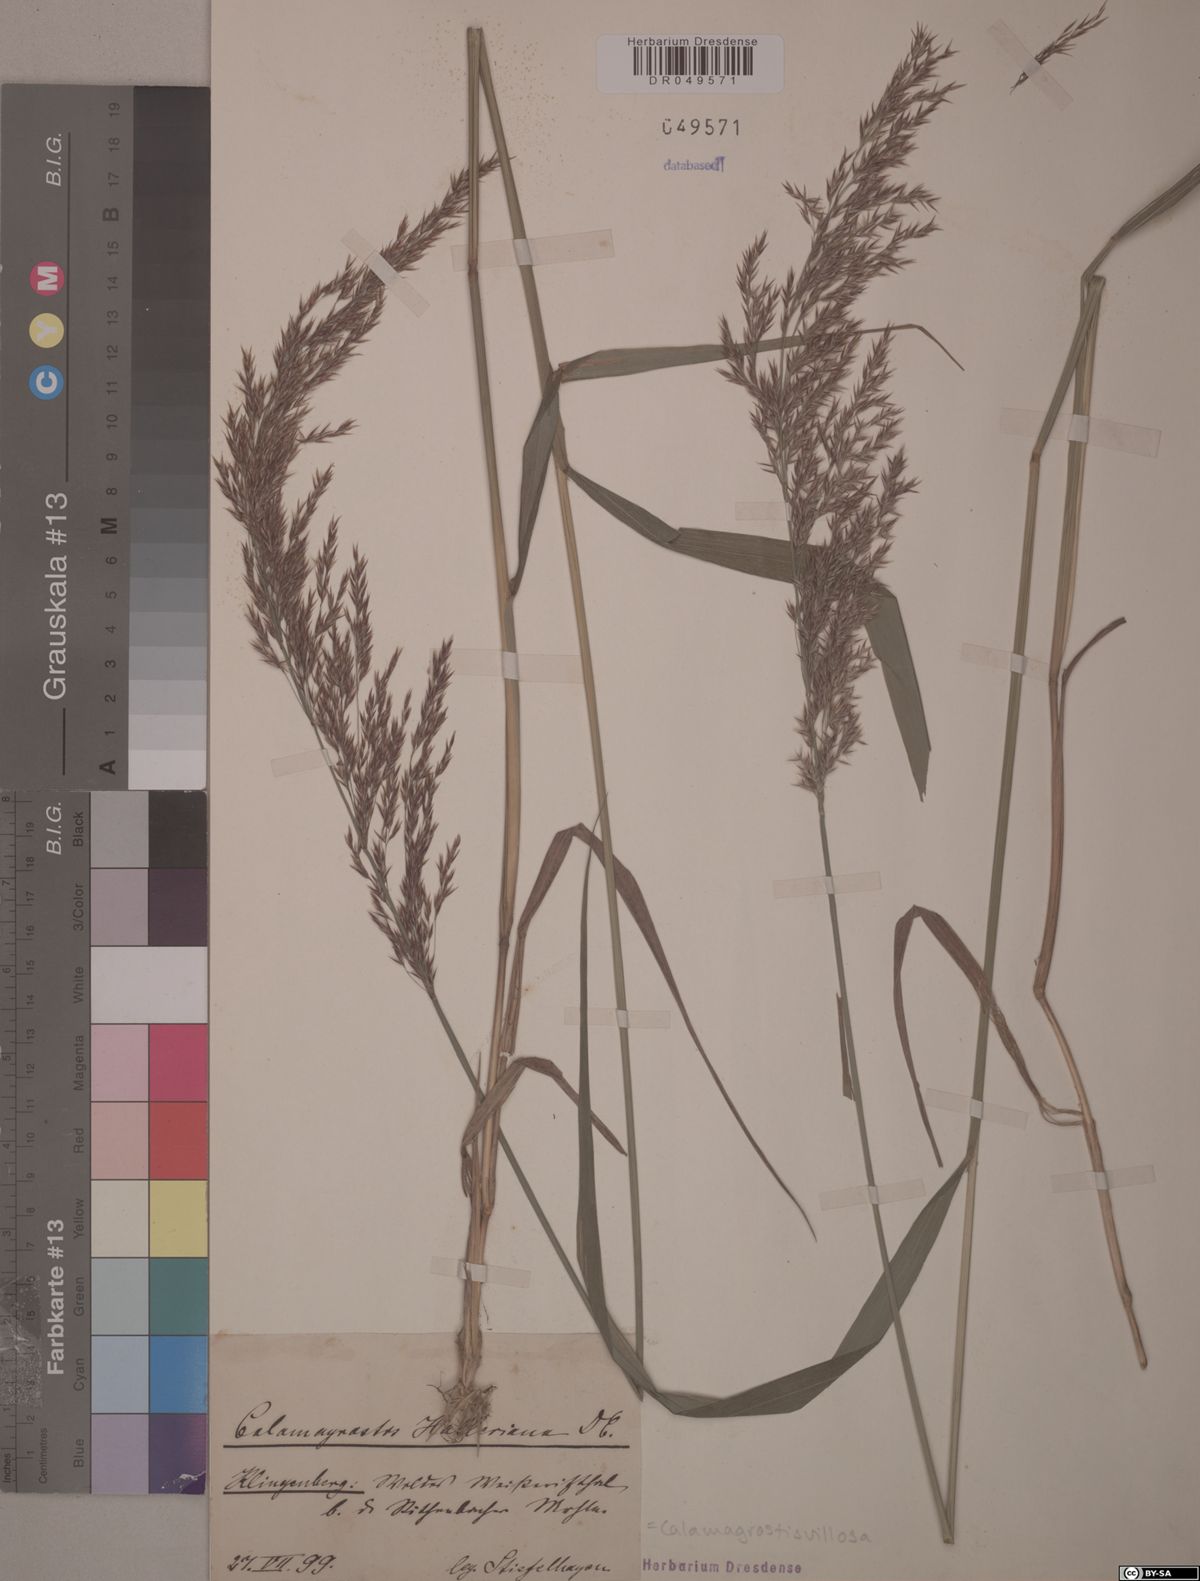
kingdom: Plantae
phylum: Tracheophyta
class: Liliopsida
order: Poales
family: Poaceae
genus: Calamagrostis
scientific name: Calamagrostis villosa
